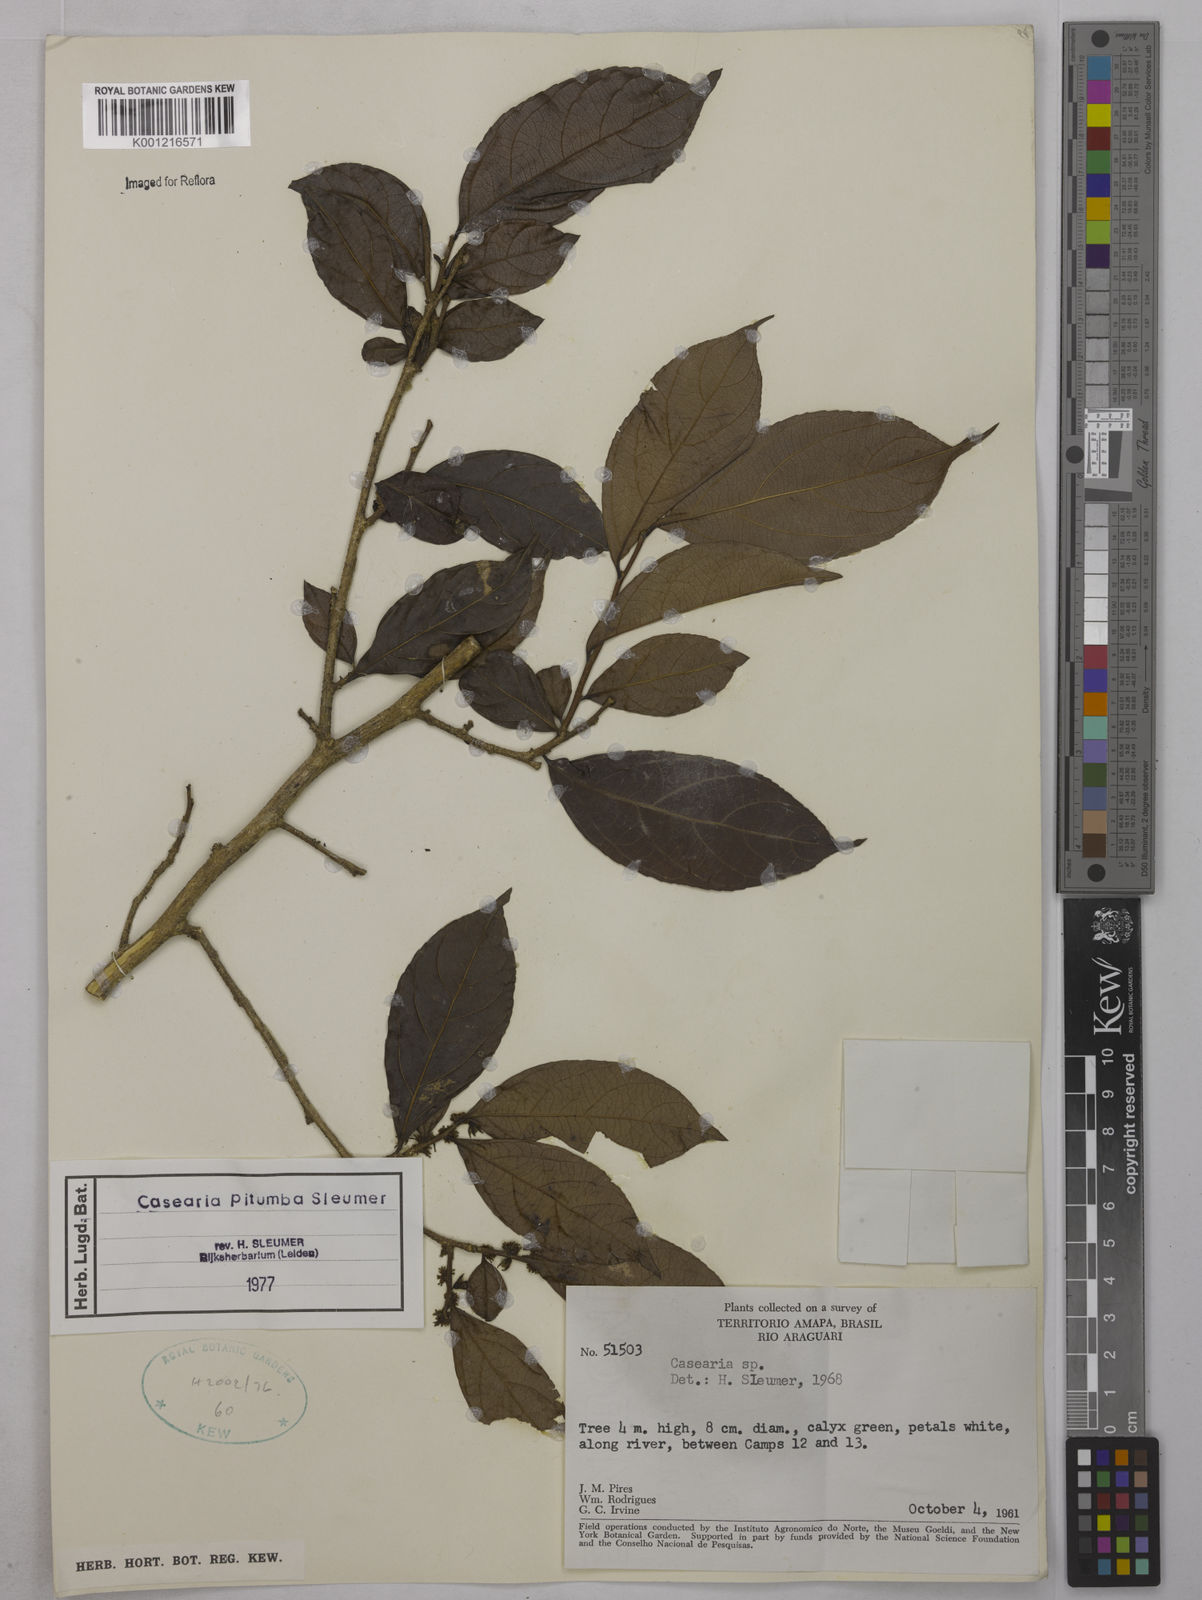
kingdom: Plantae
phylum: Tracheophyta
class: Magnoliopsida
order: Malpighiales
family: Salicaceae
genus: Casearia
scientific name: Casearia pitumba
